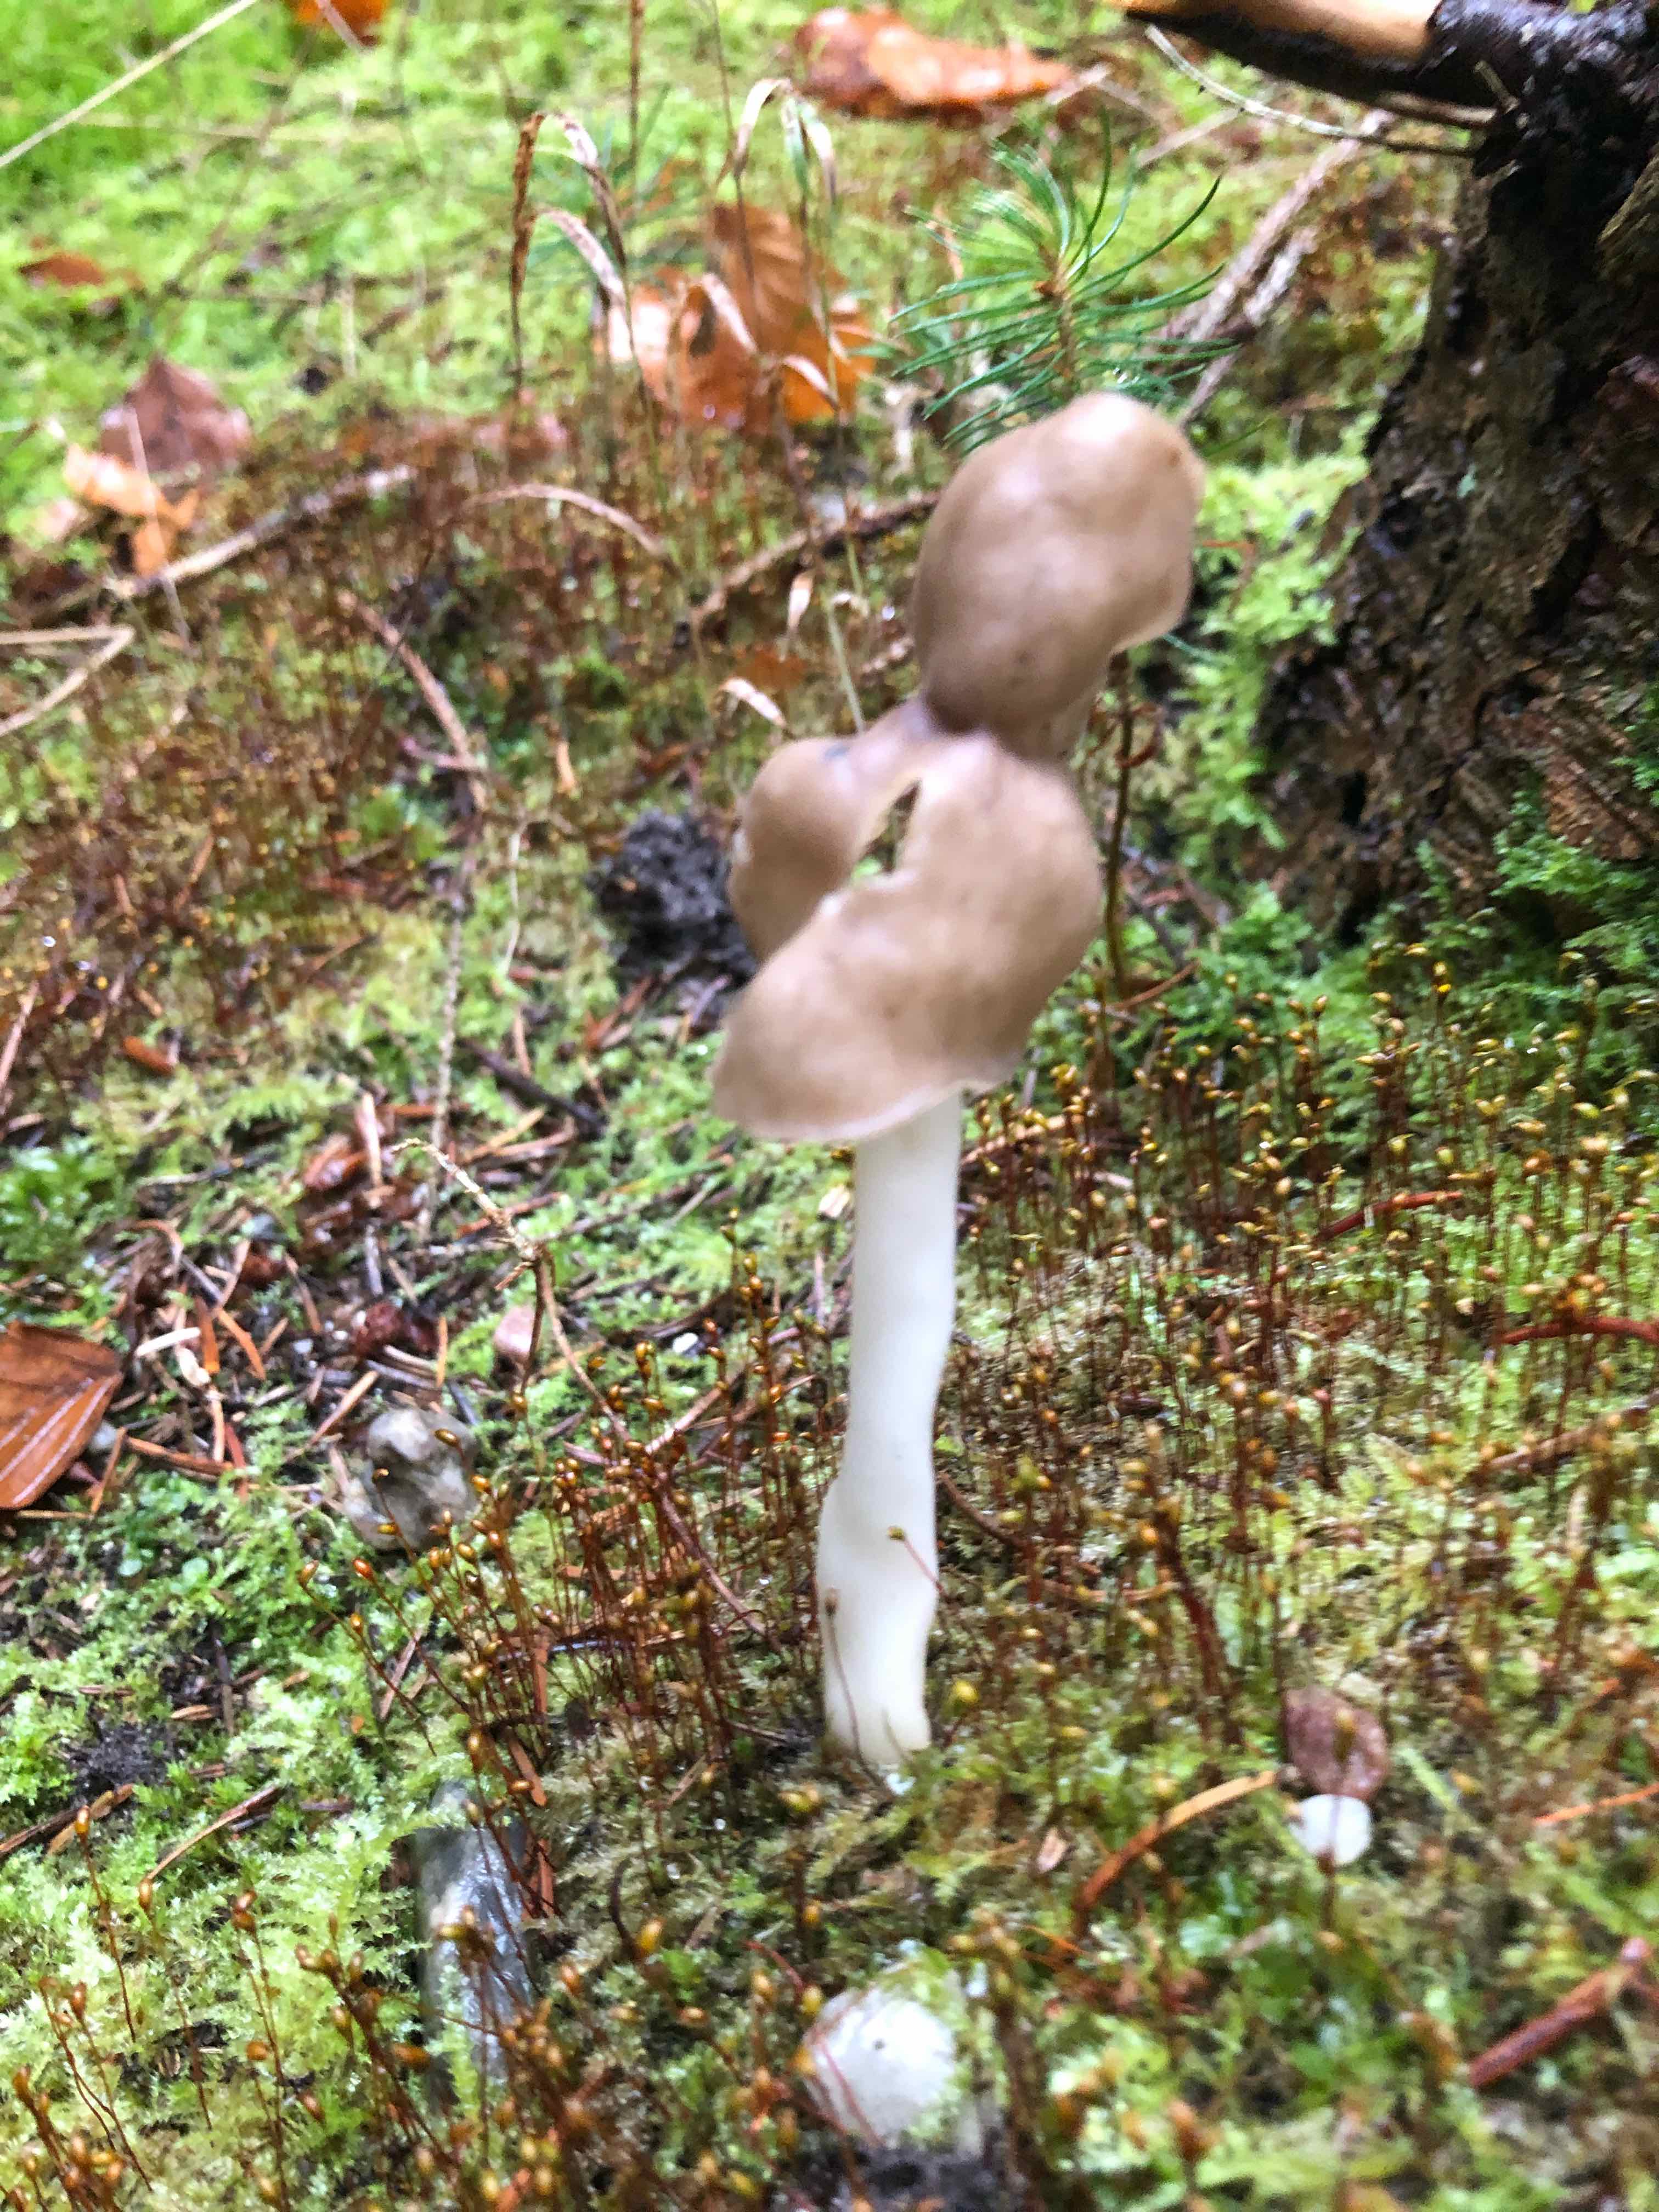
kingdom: Fungi
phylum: Ascomycota
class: Pezizomycetes
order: Pezizales
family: Helvellaceae
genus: Helvella
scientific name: Helvella elastica
